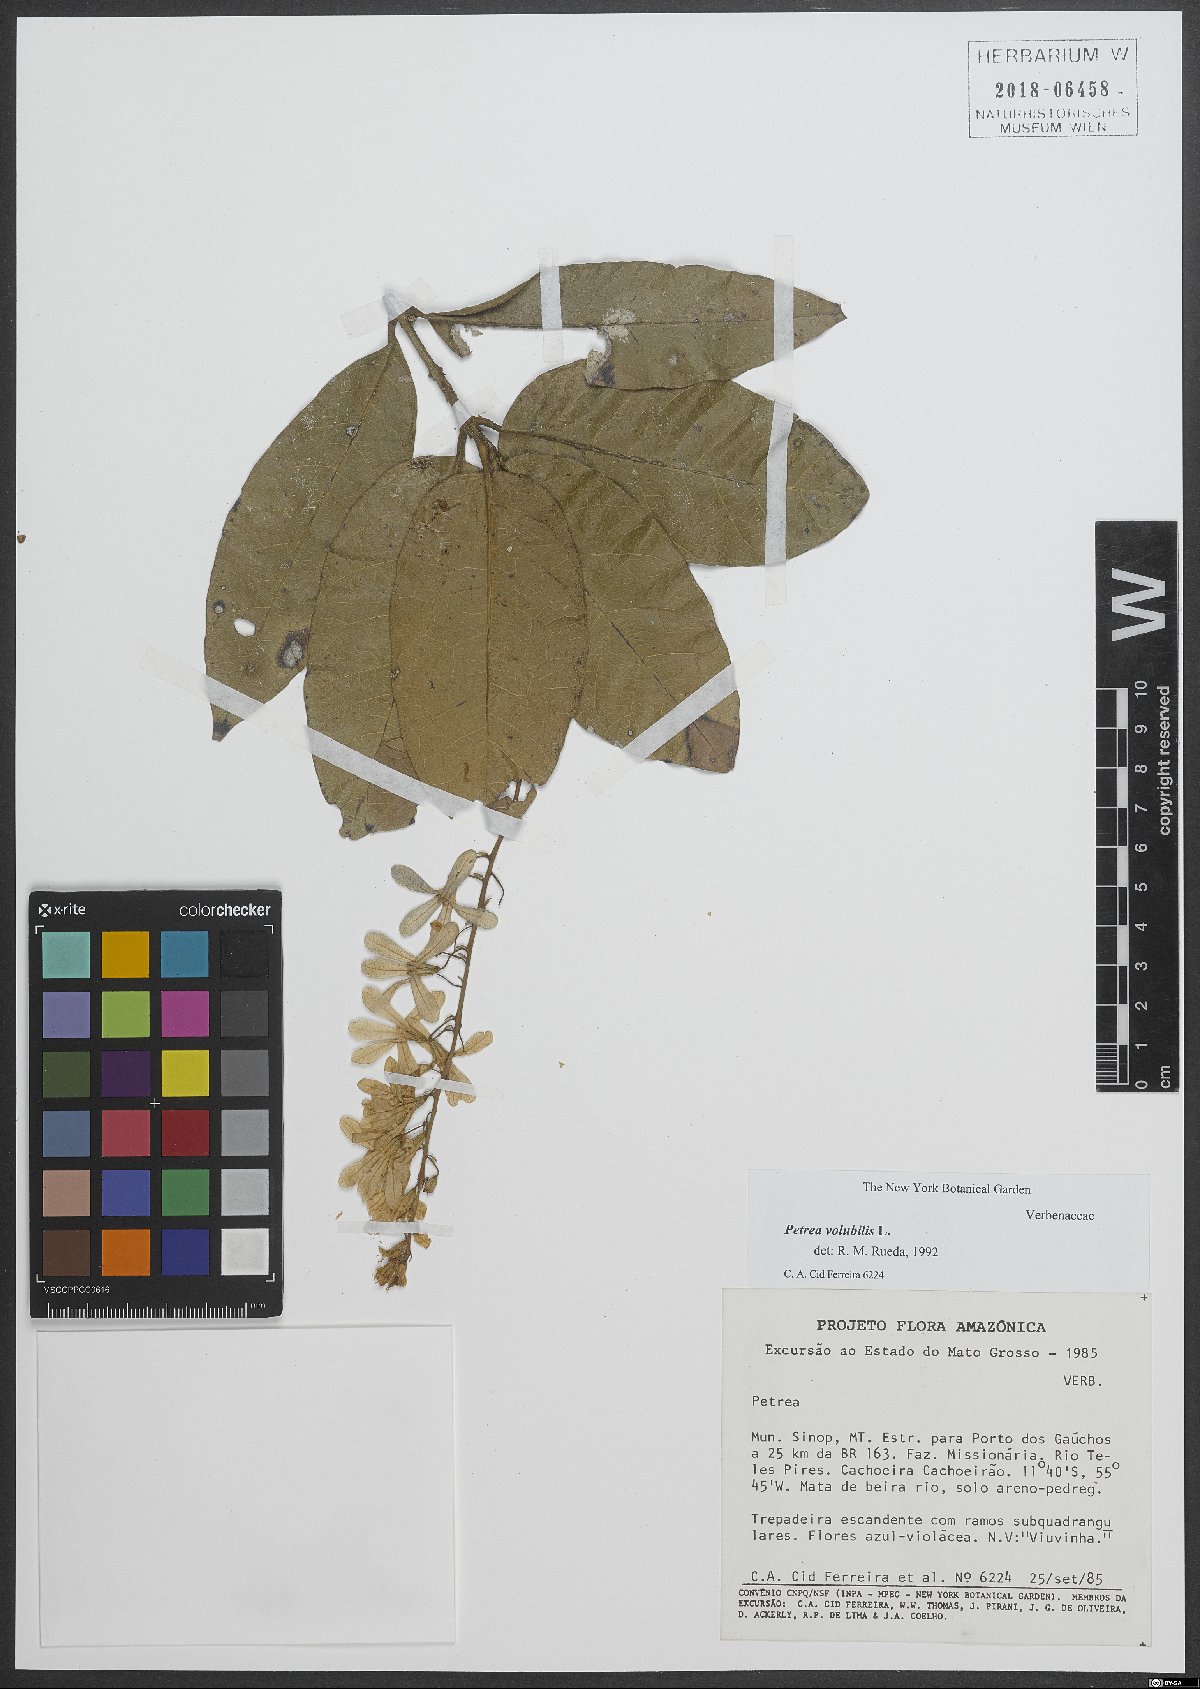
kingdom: Plantae
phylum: Tracheophyta
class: Magnoliopsida
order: Lamiales
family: Verbenaceae
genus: Petrea
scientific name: Petrea volubilis
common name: Queen's-wreath
